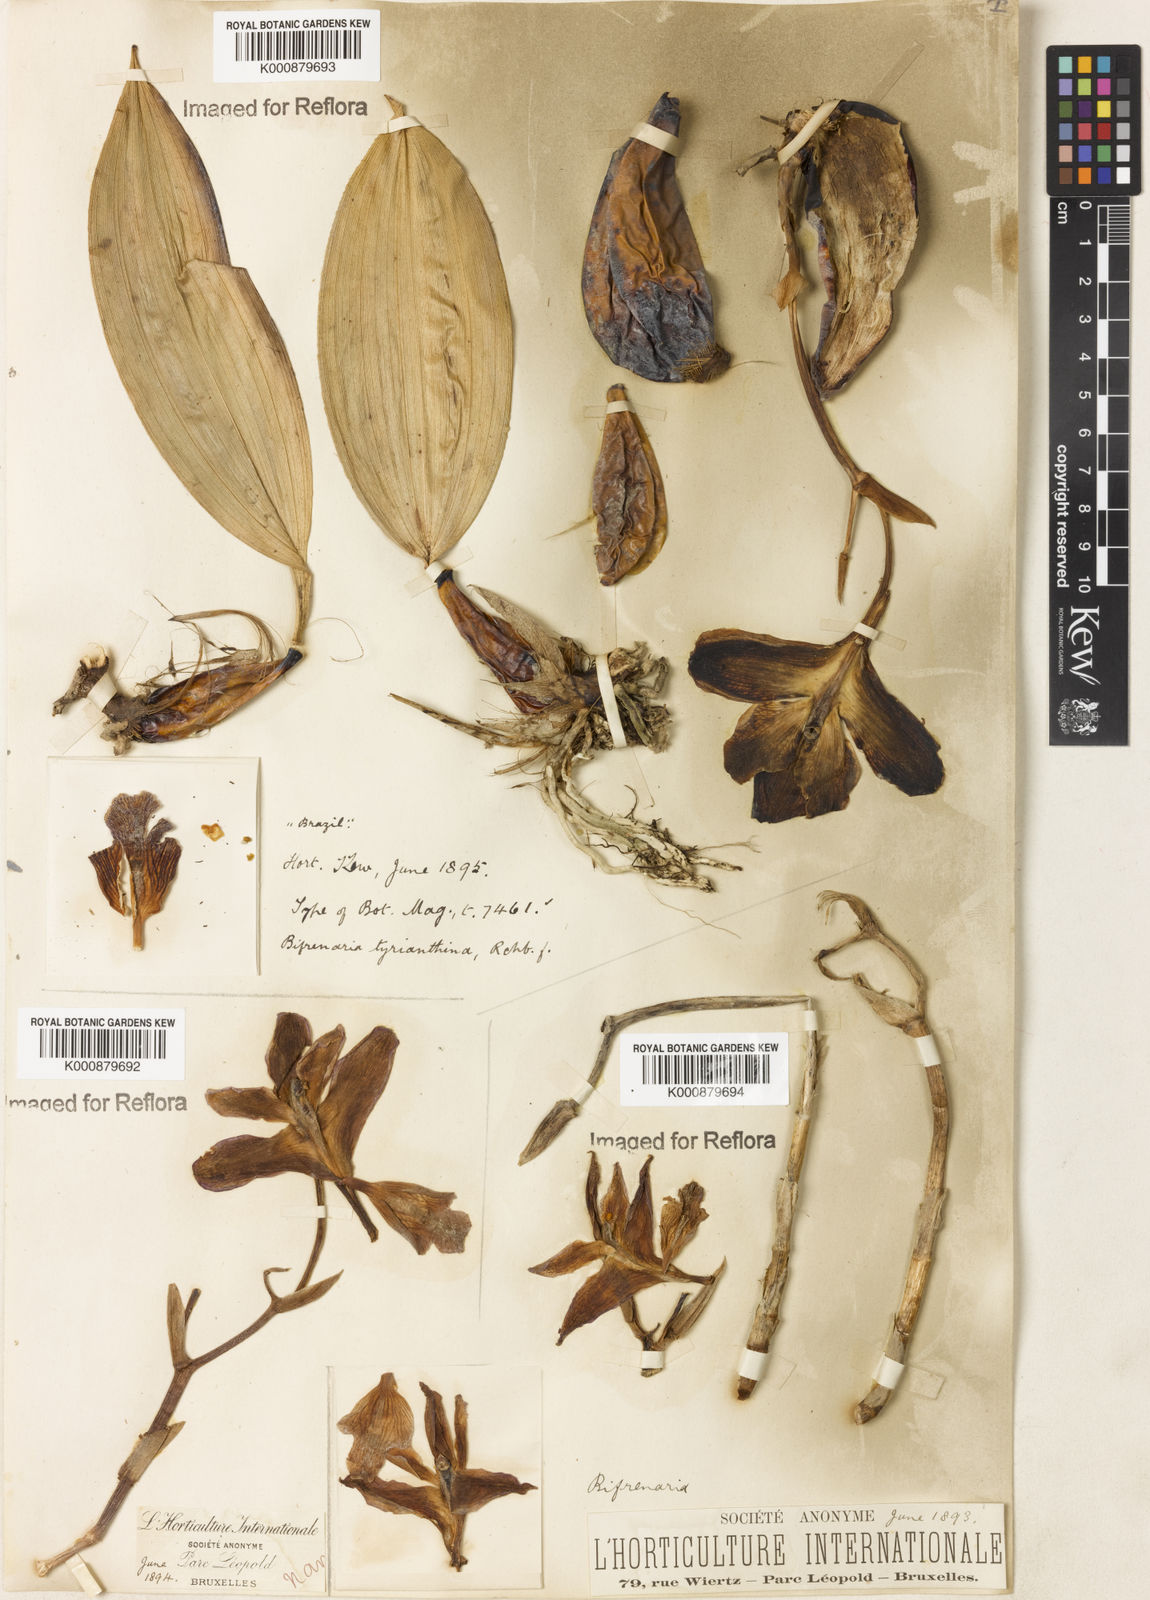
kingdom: Plantae
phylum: Tracheophyta
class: Liliopsida
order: Asparagales
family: Orchidaceae
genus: Bifrenaria
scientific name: Bifrenaria tyrianthina
